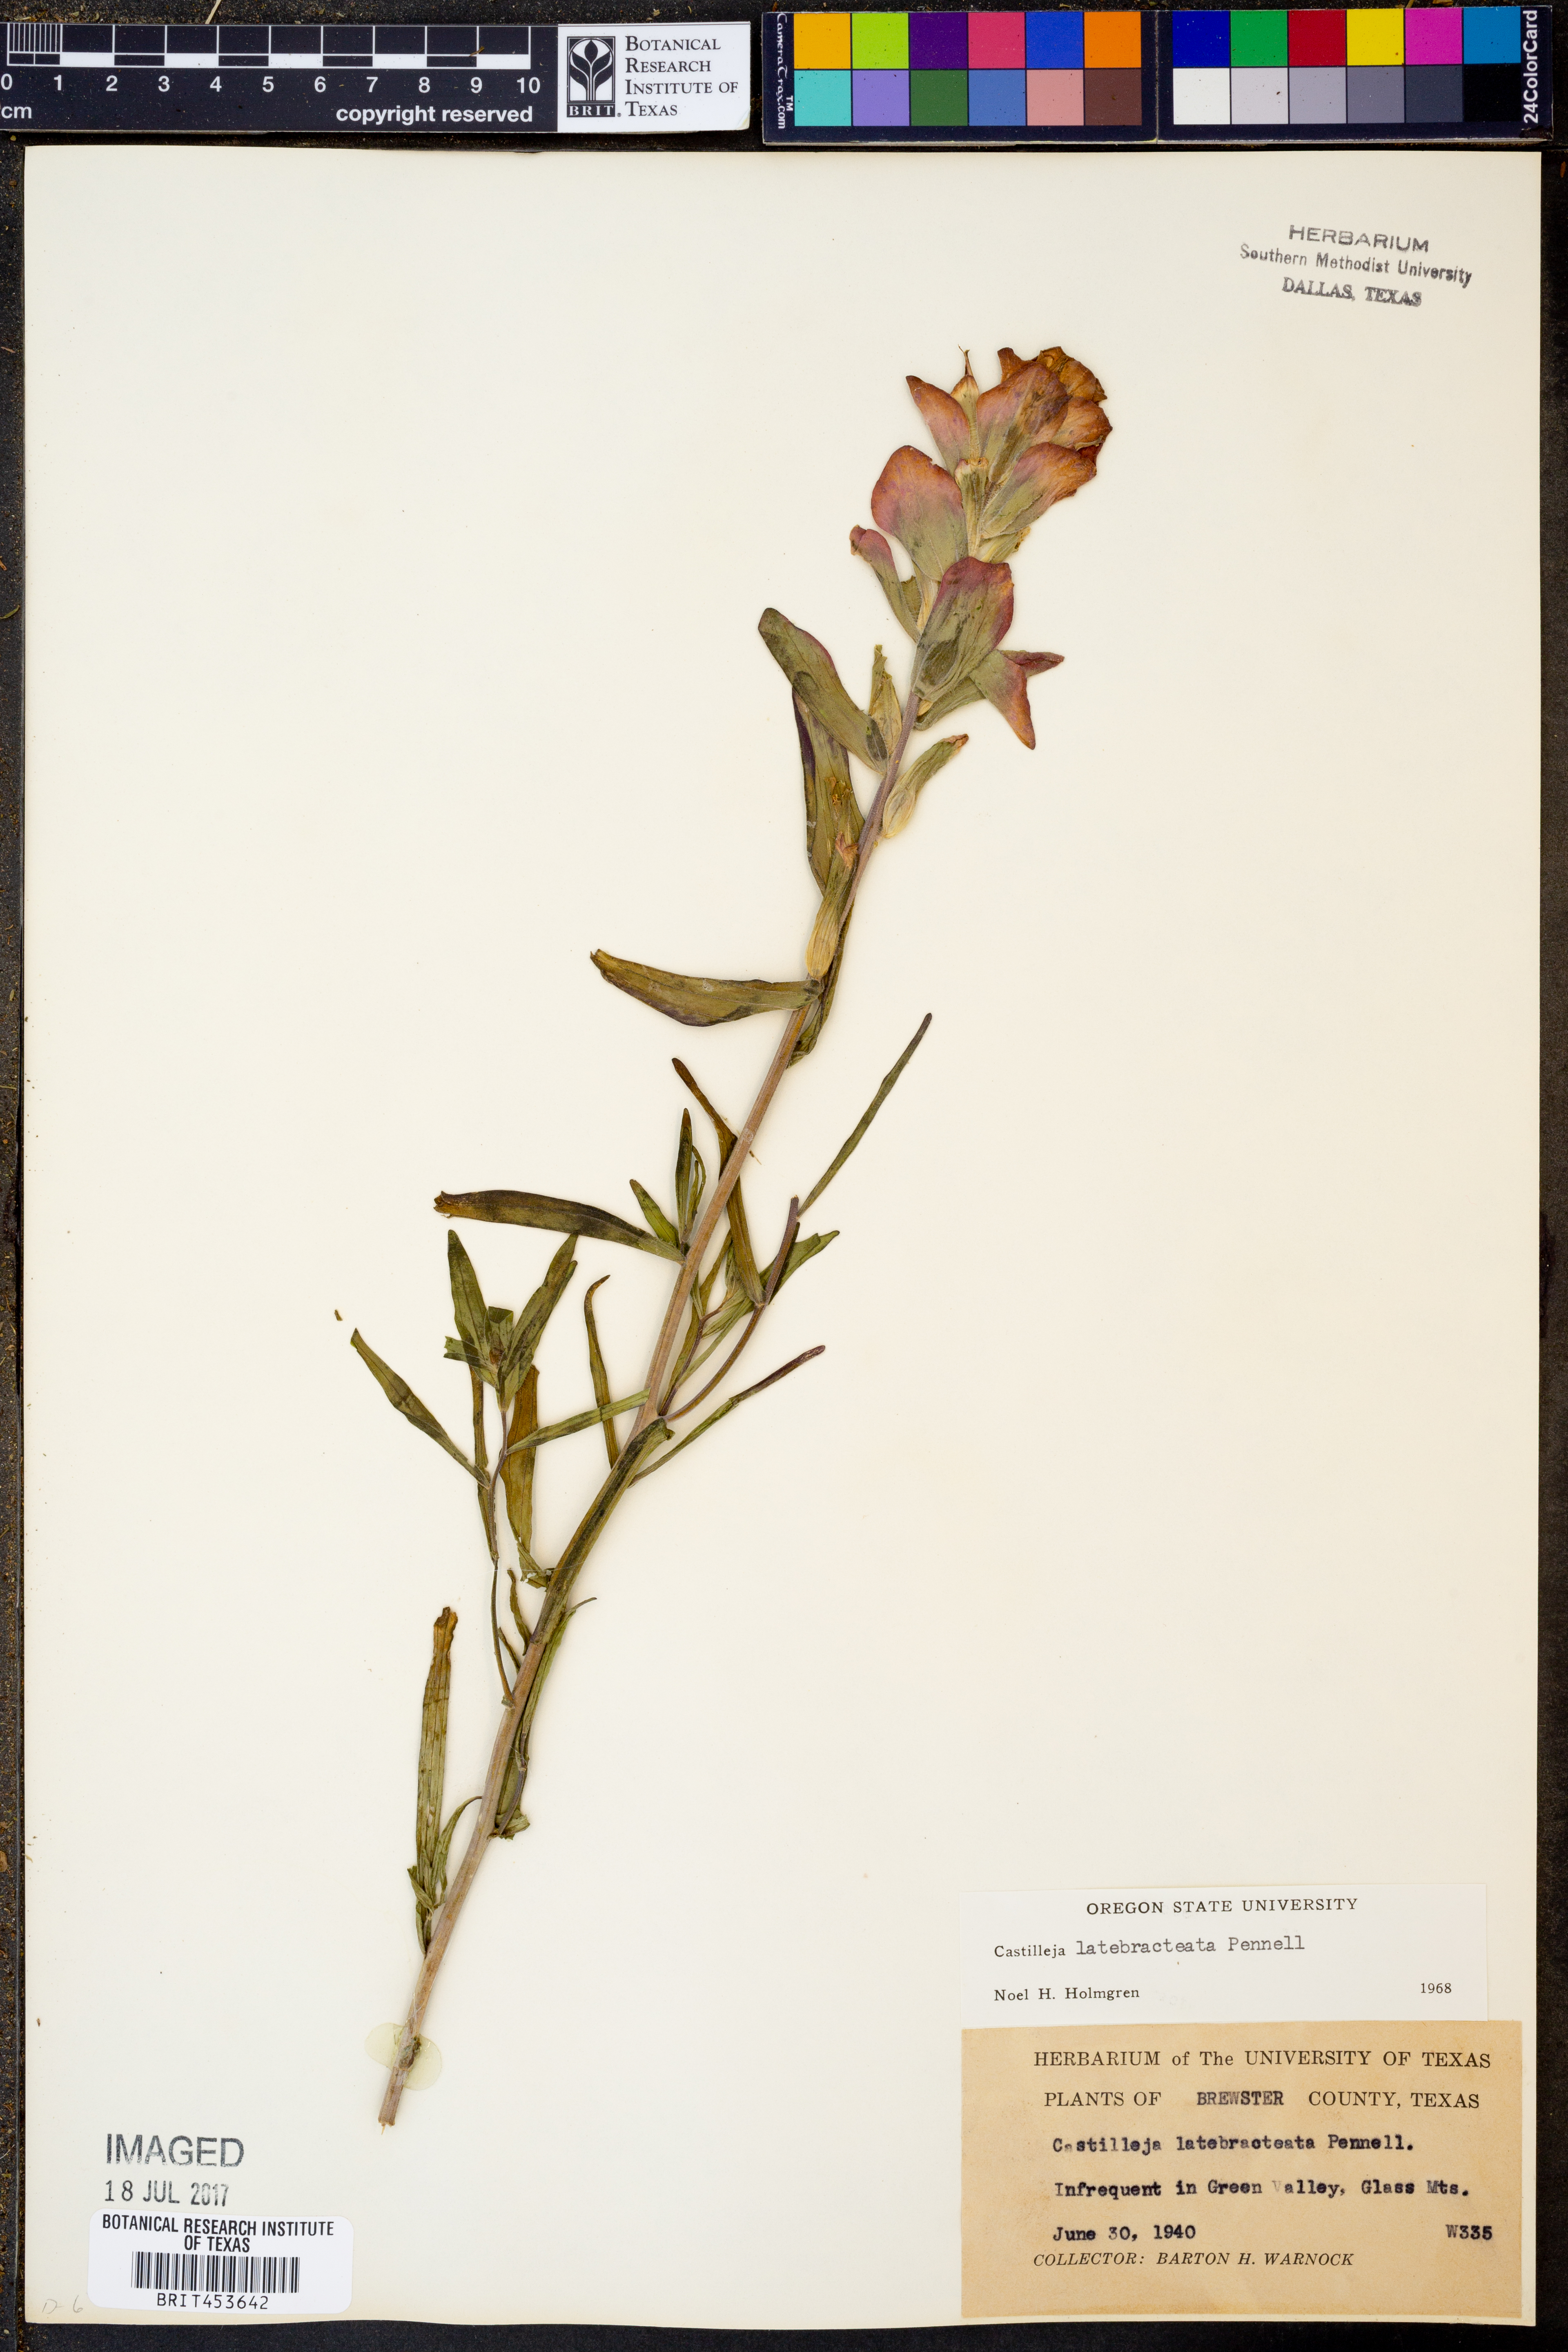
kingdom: Plantae
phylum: Tracheophyta
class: Magnoliopsida
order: Lamiales
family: Orobanchaceae
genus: Castilleja
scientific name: Castilleja rigida
